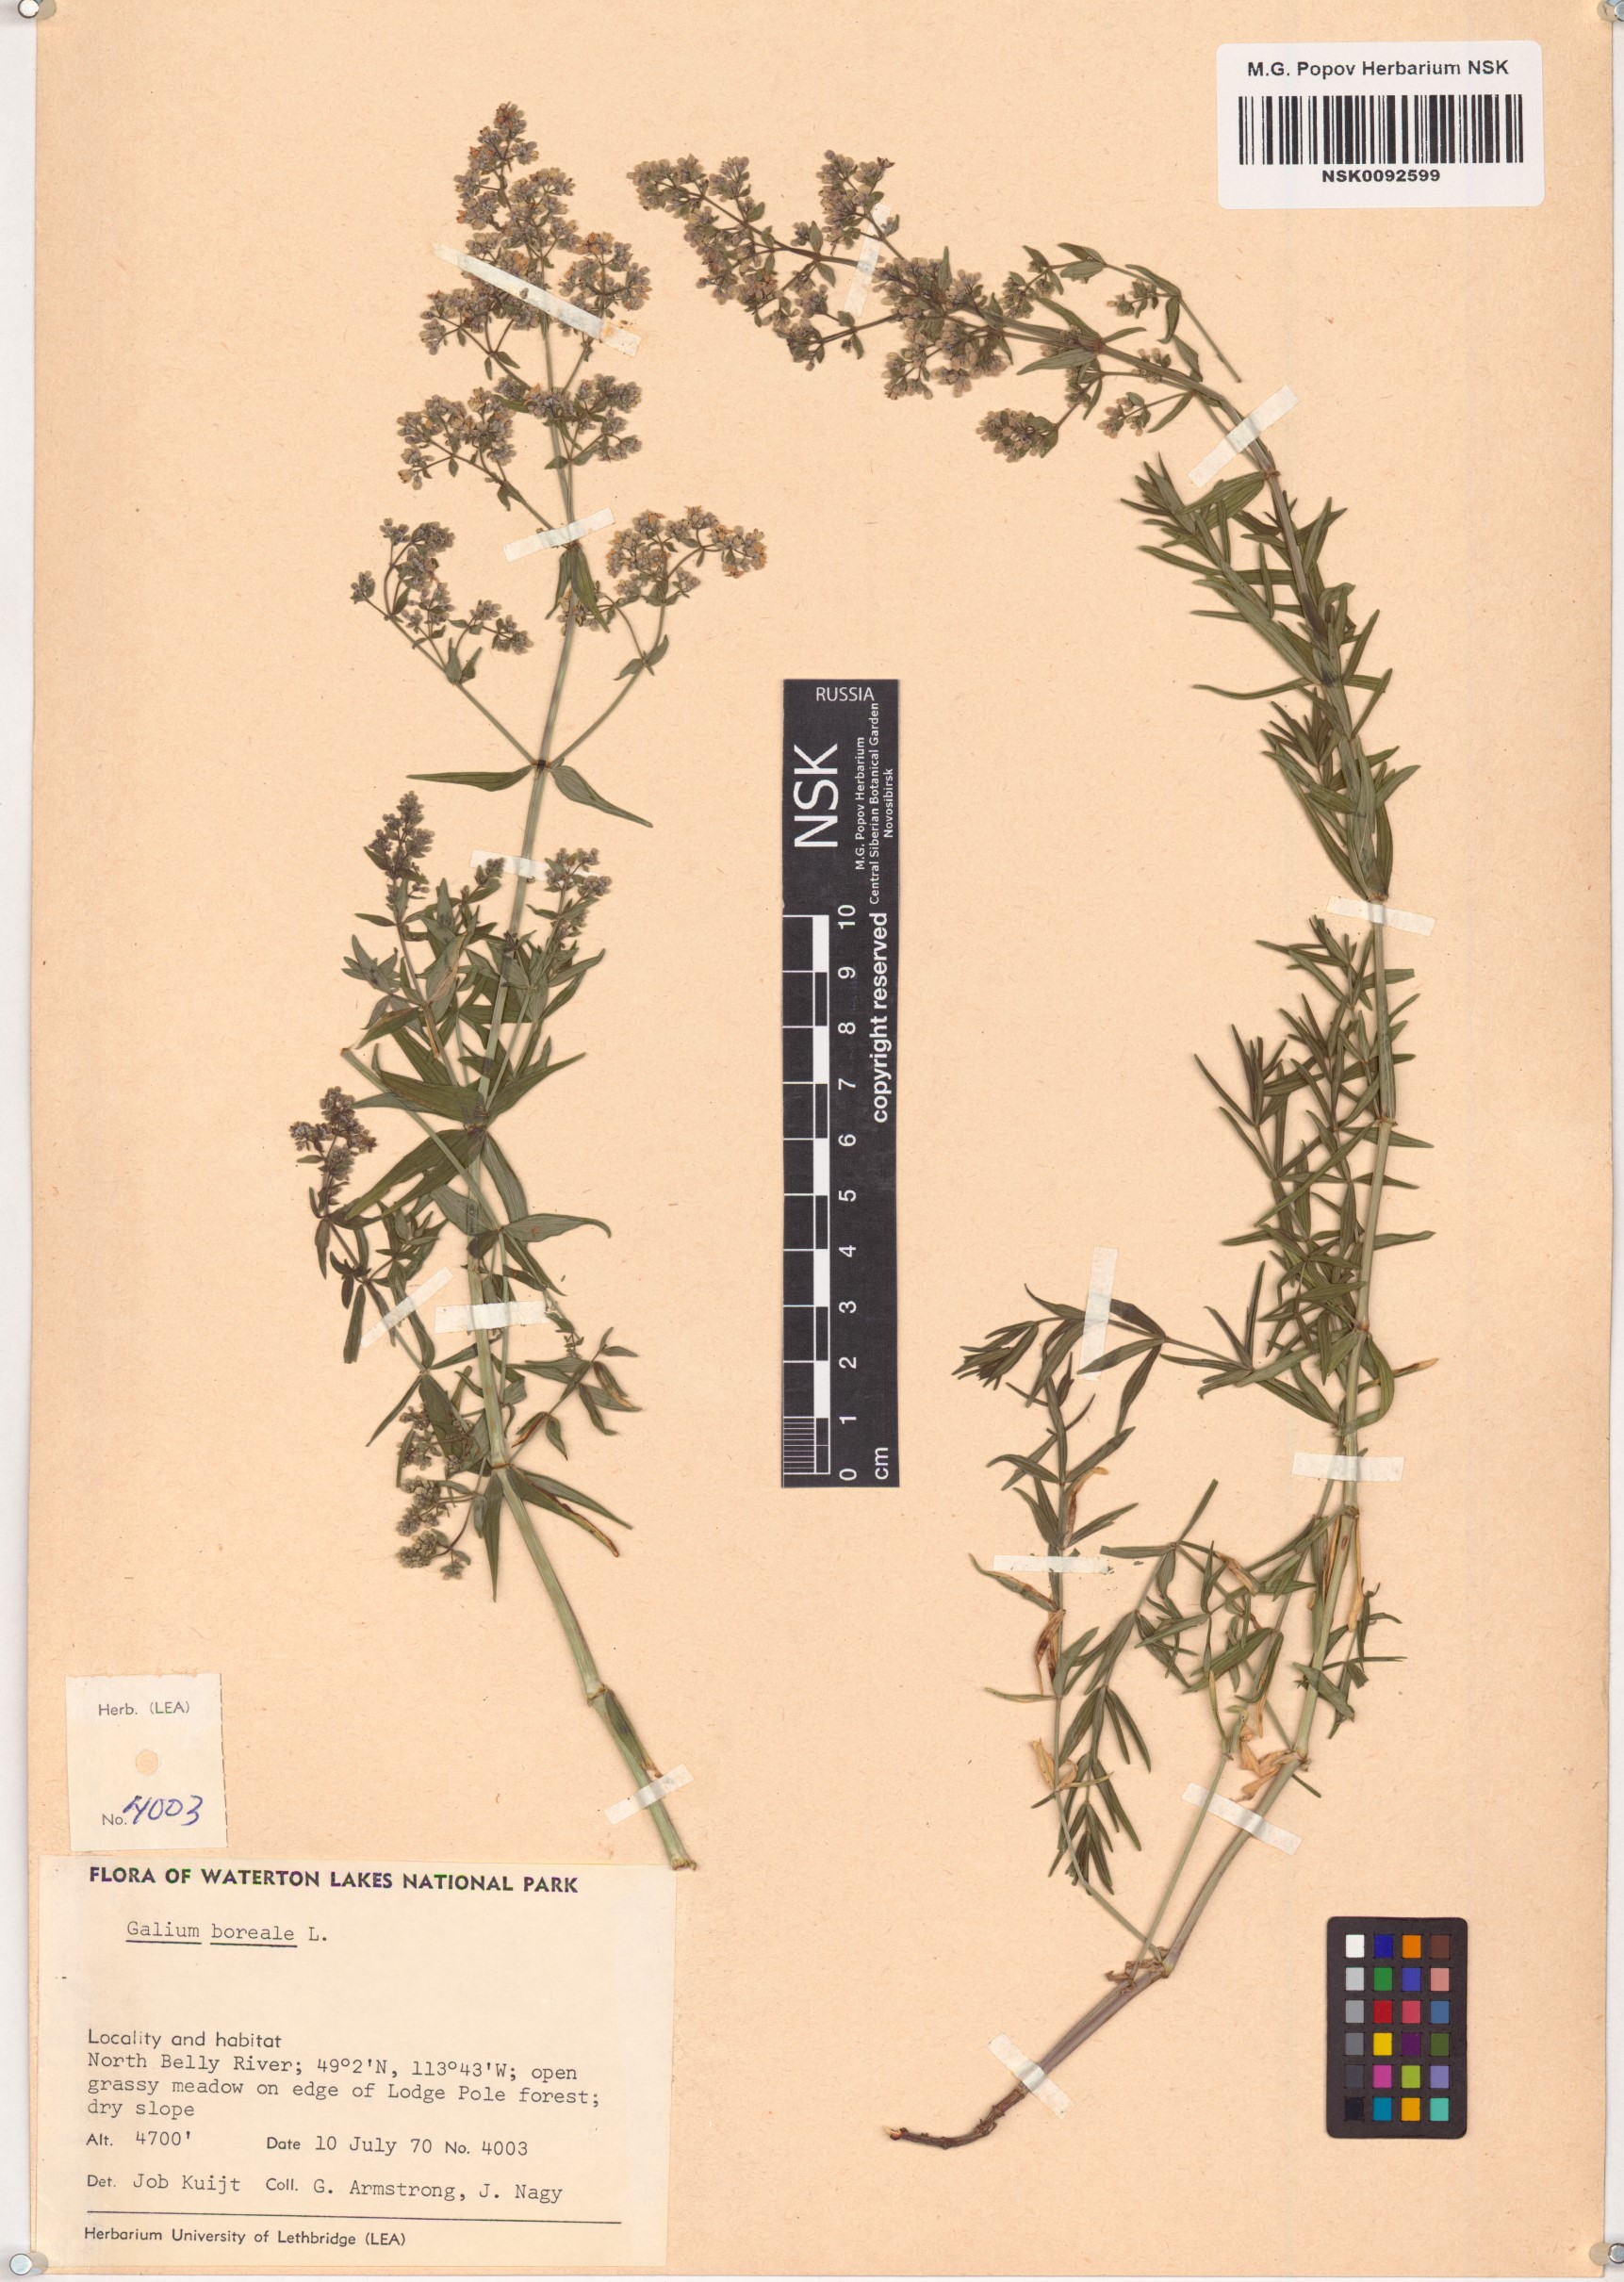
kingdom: Plantae
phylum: Tracheophyta
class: Magnoliopsida
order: Gentianales
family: Rubiaceae
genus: Galium
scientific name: Galium boreale
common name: Northern bedstraw
